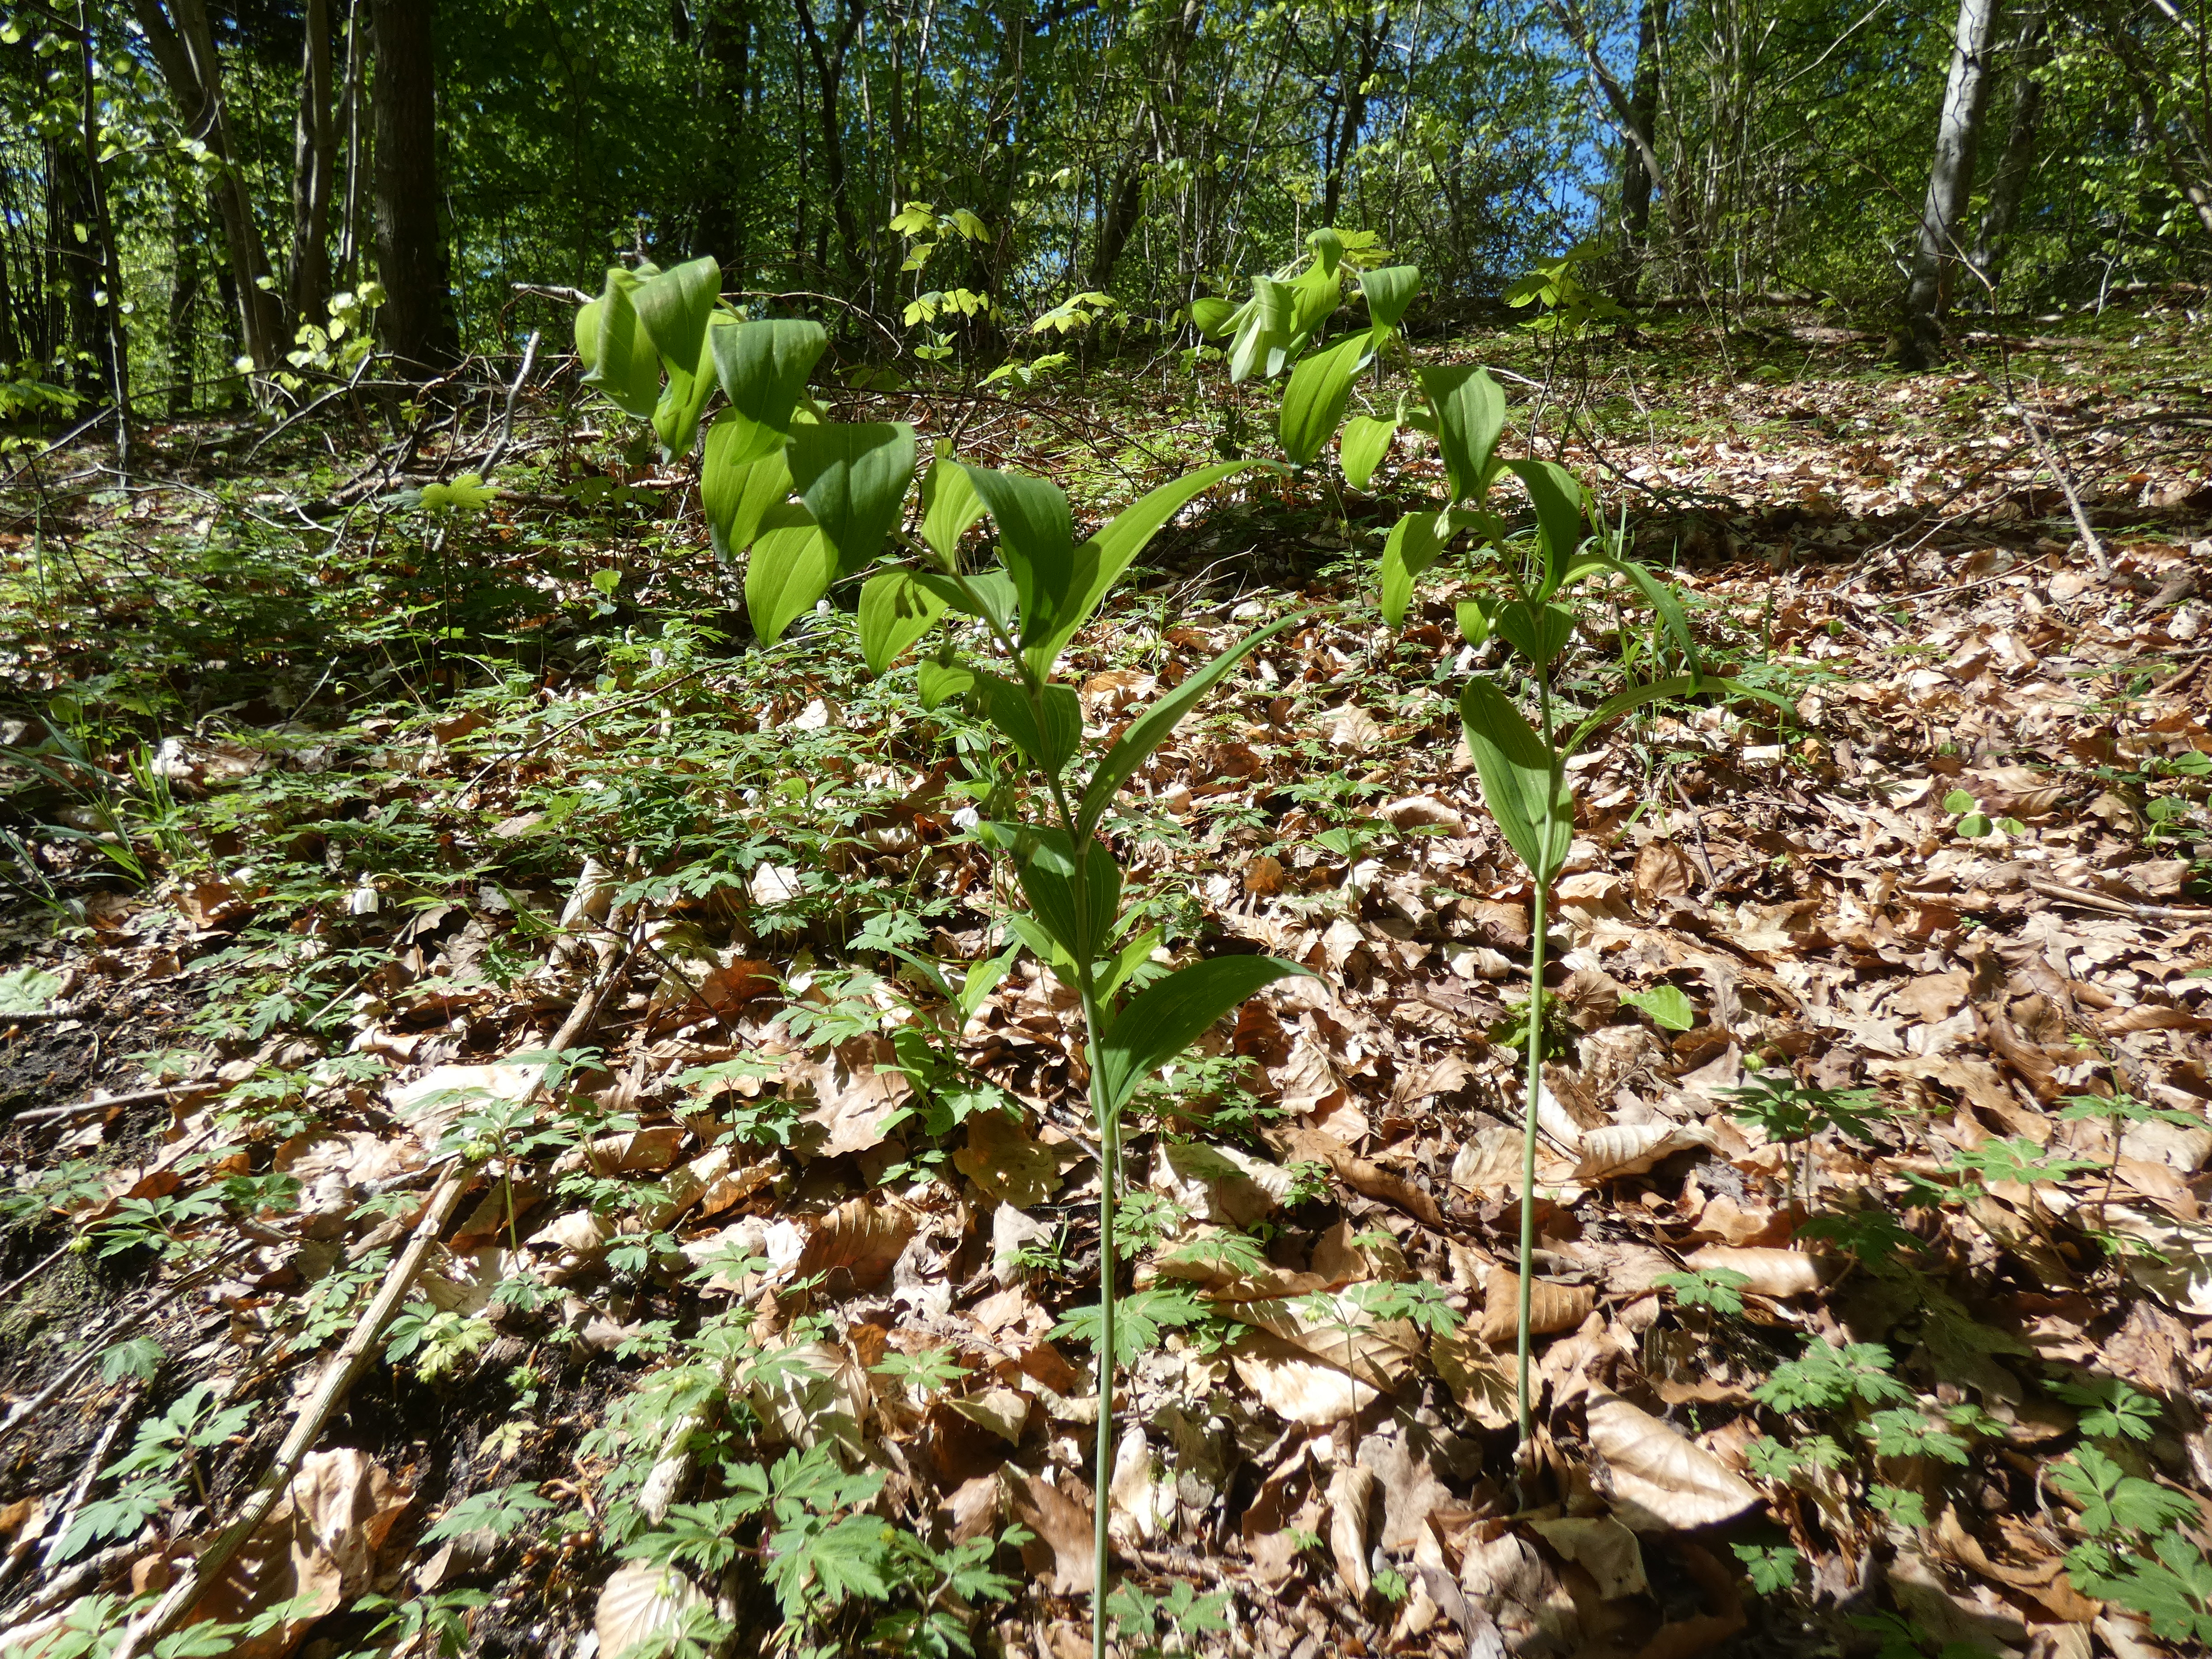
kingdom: Plantae
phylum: Tracheophyta
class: Liliopsida
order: Asparagales
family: Asparagaceae
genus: Polygonatum
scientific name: Polygonatum multiflorum
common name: Stor konval
